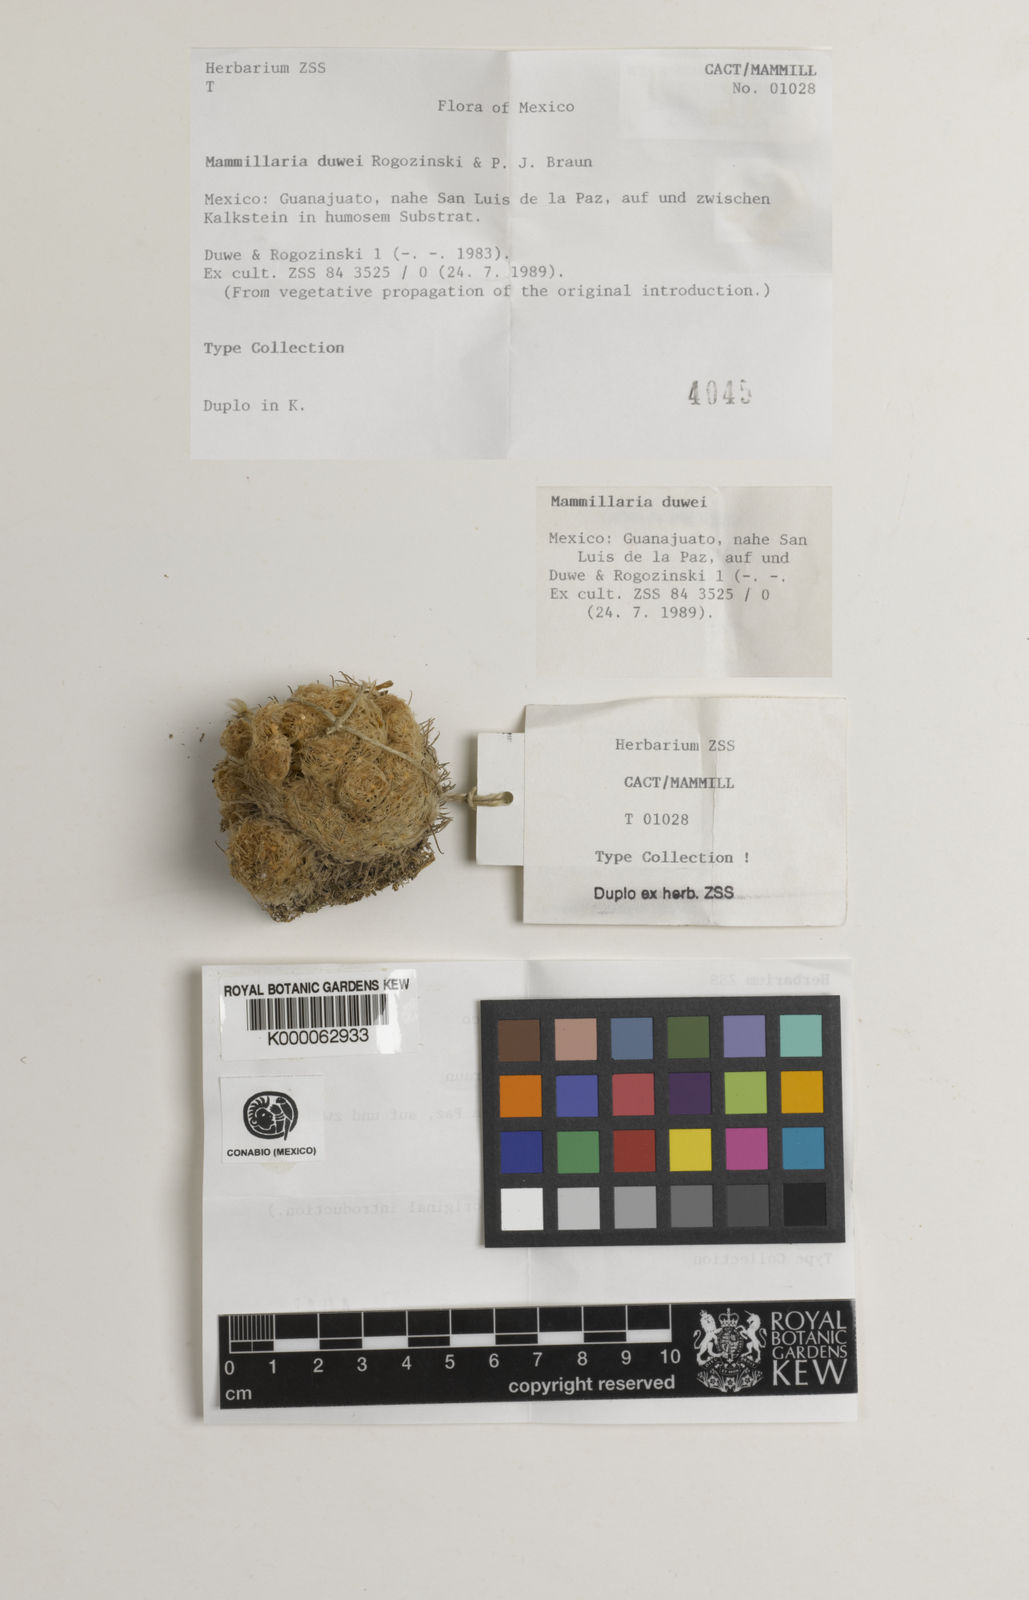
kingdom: Plantae
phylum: Tracheophyta
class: Magnoliopsida
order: Caryophyllales
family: Cactaceae
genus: Mammillaria
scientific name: Mammillaria duwei
